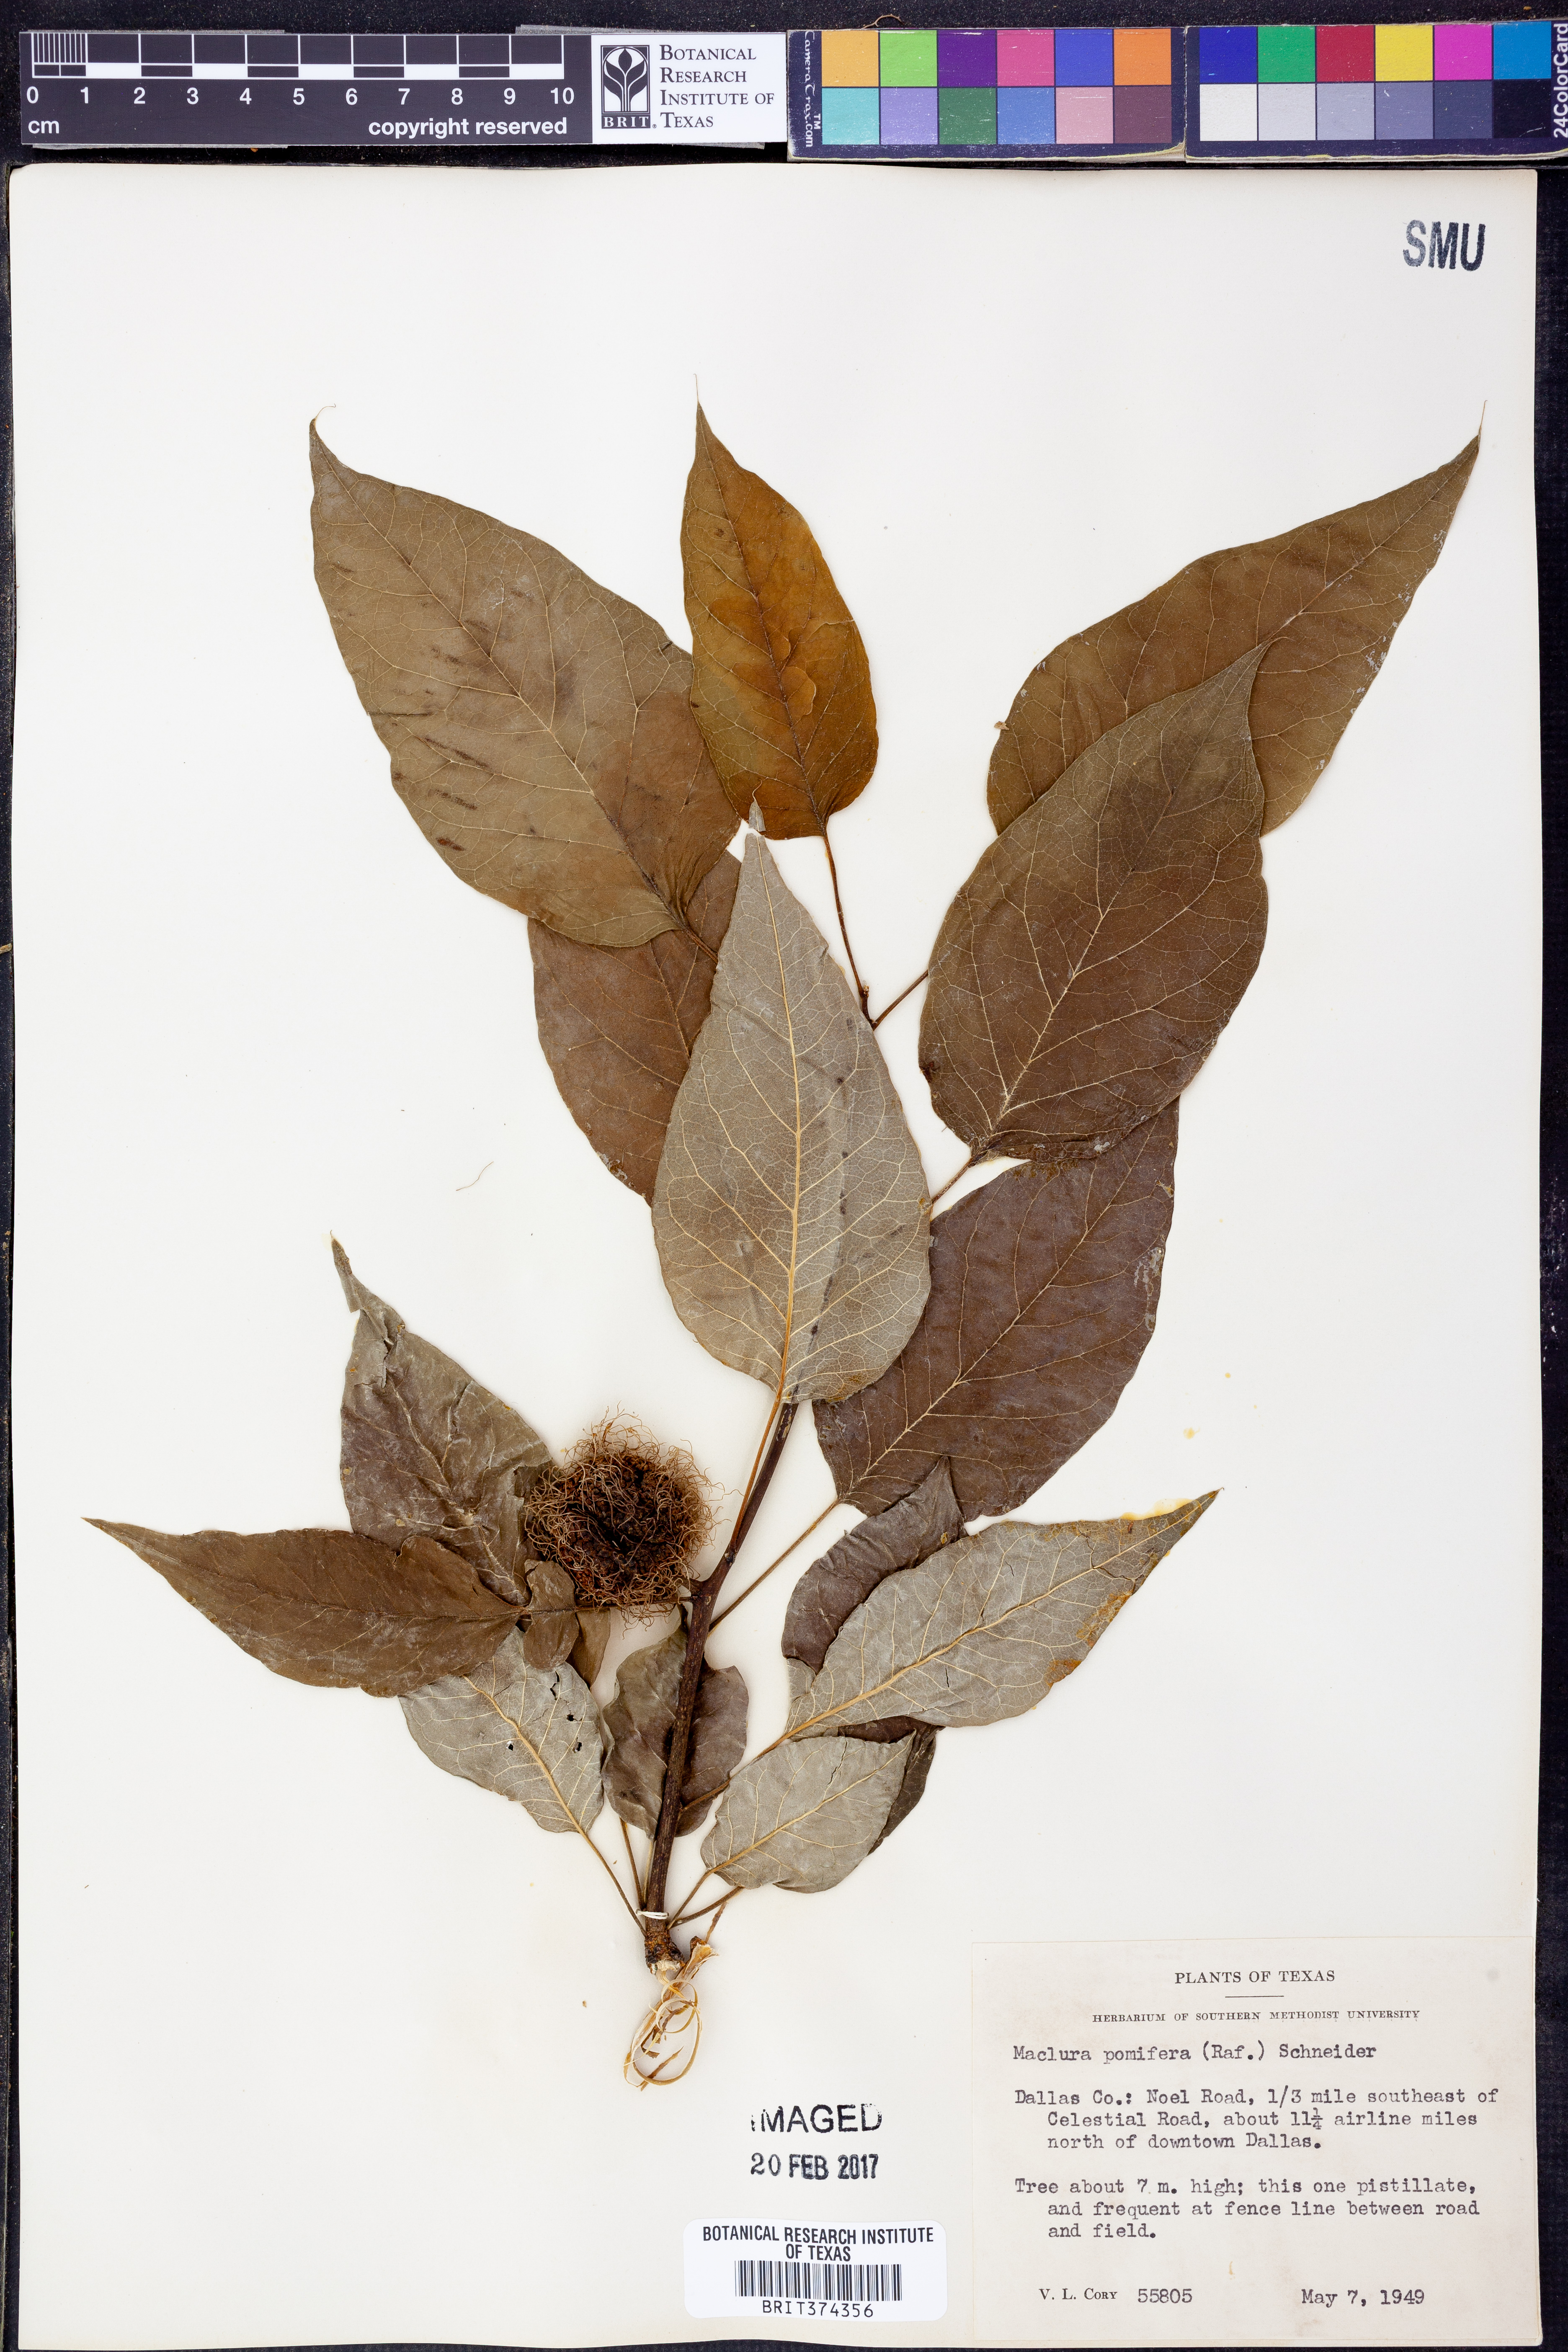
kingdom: Plantae
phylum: Tracheophyta
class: Magnoliopsida
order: Rosales
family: Moraceae
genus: Maclura
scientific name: Maclura pomifera
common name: Osage-orange
